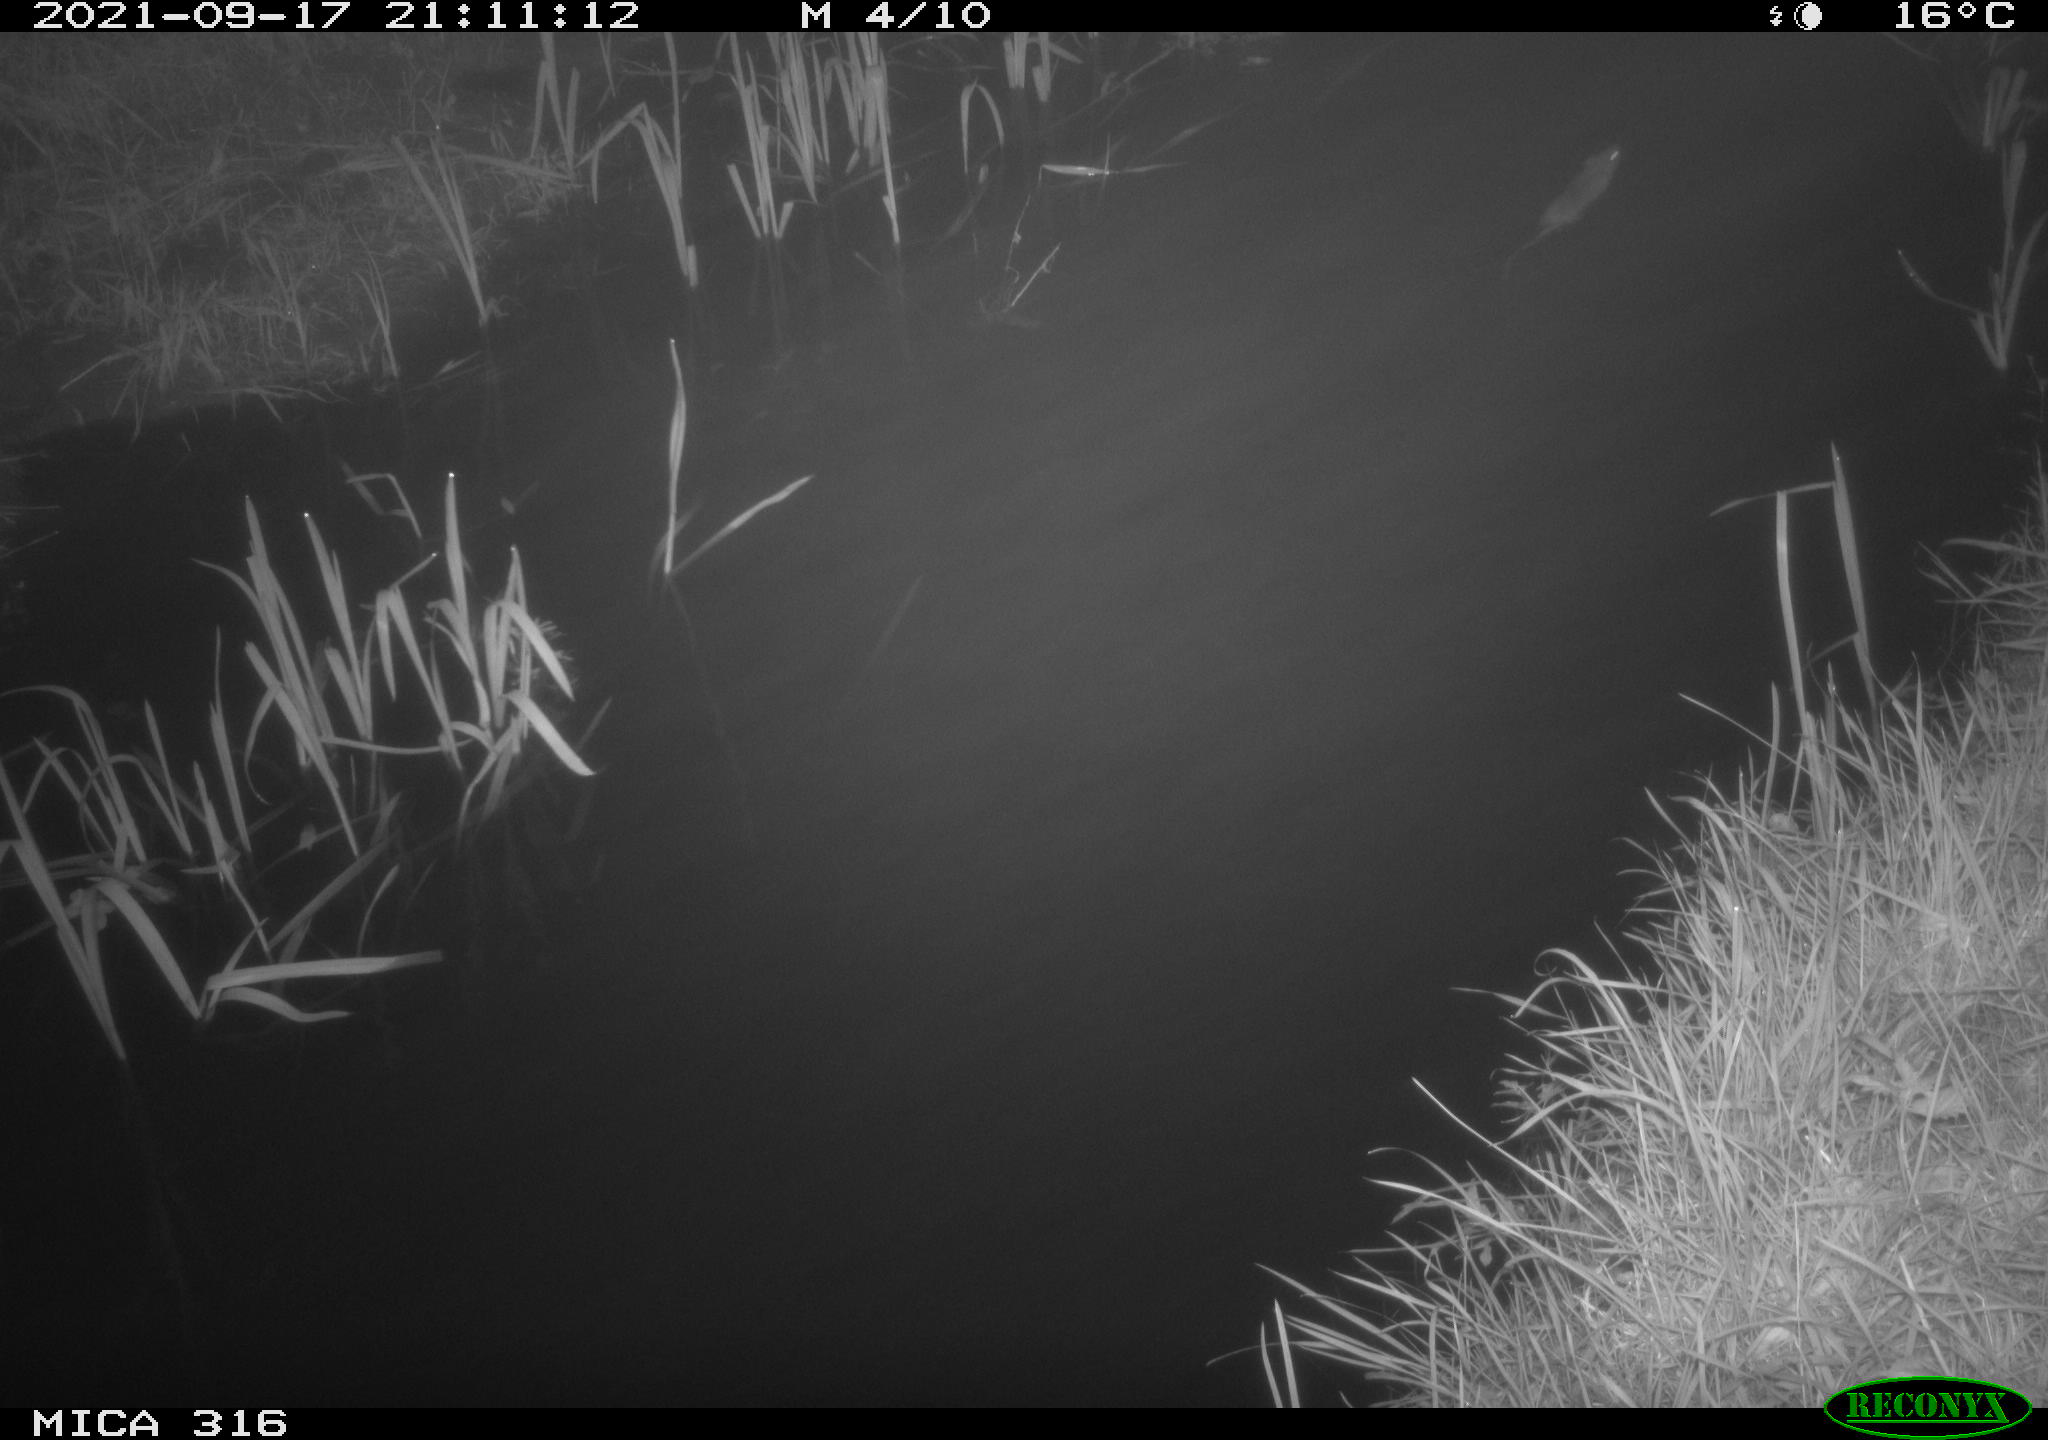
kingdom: Animalia
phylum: Chordata
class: Mammalia
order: Rodentia
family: Muridae
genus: Rattus
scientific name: Rattus norvegicus
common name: Brown rat
